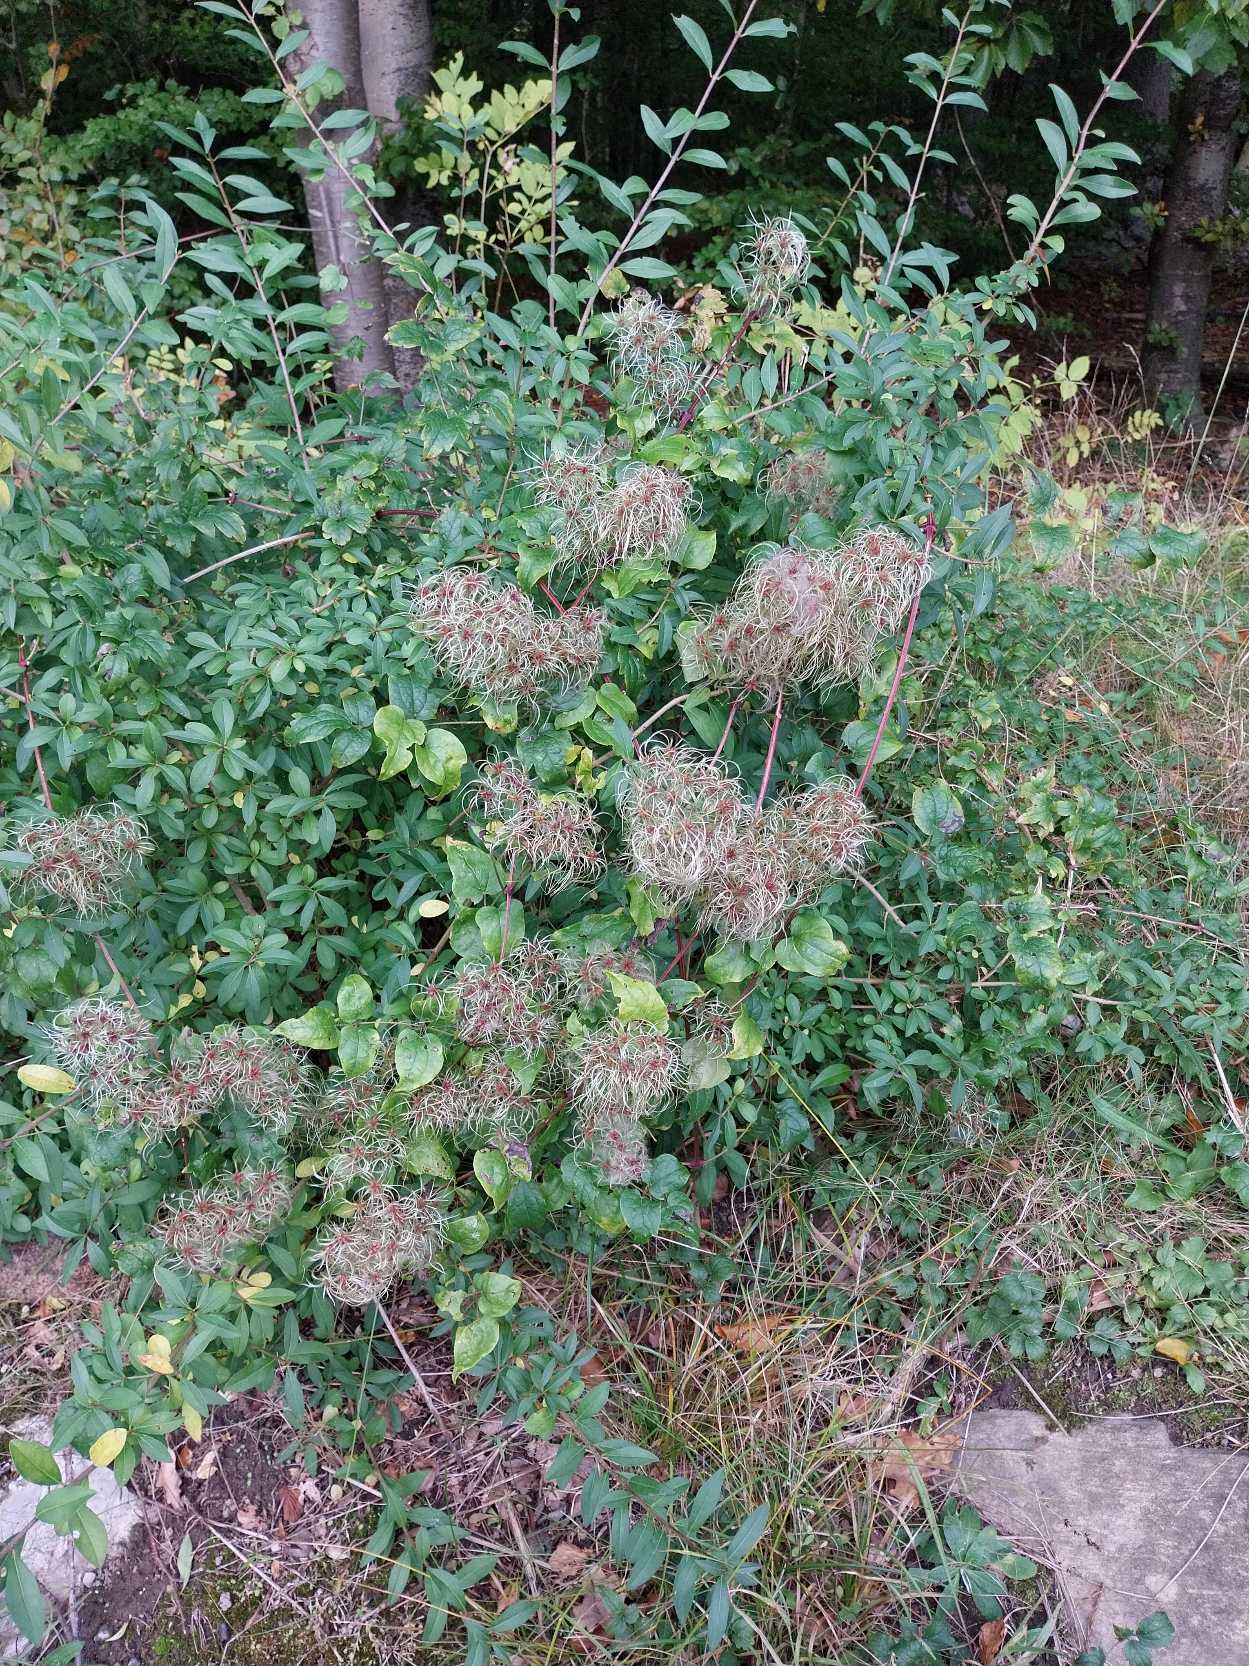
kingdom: Plantae
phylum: Tracheophyta
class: Magnoliopsida
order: Ranunculales
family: Ranunculaceae
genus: Clematis
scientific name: Clematis vitalba
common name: Skovranke
